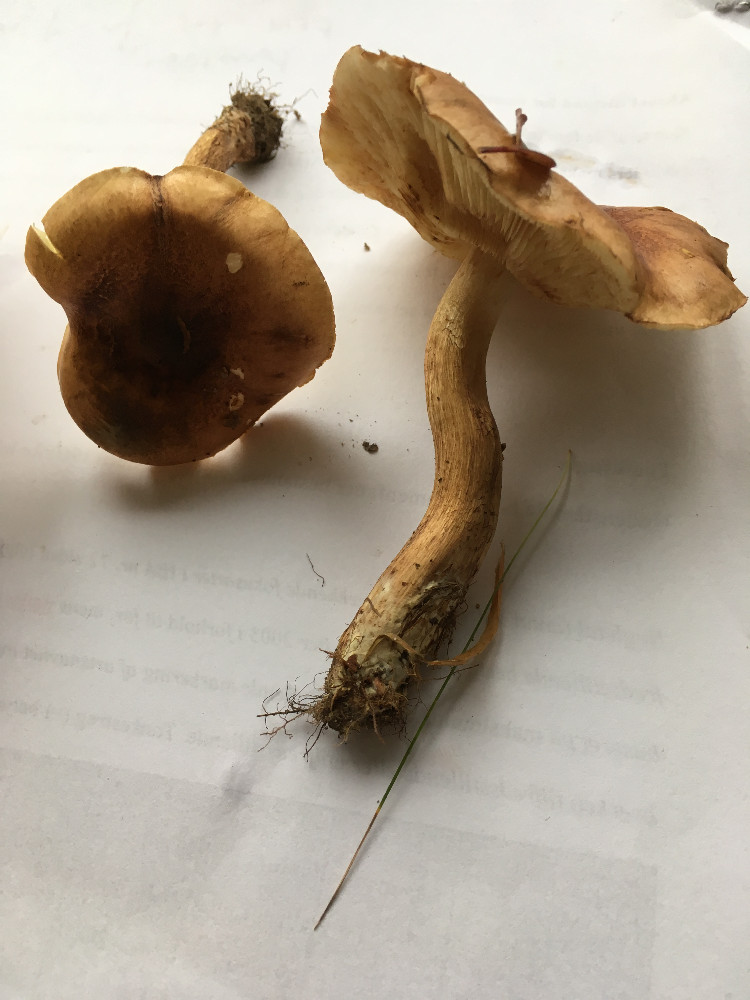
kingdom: Fungi
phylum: Basidiomycota
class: Agaricomycetes
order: Agaricales
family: Tricholomataceae
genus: Tricholoma
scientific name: Tricholoma fulvum
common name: birke-ridderhat
